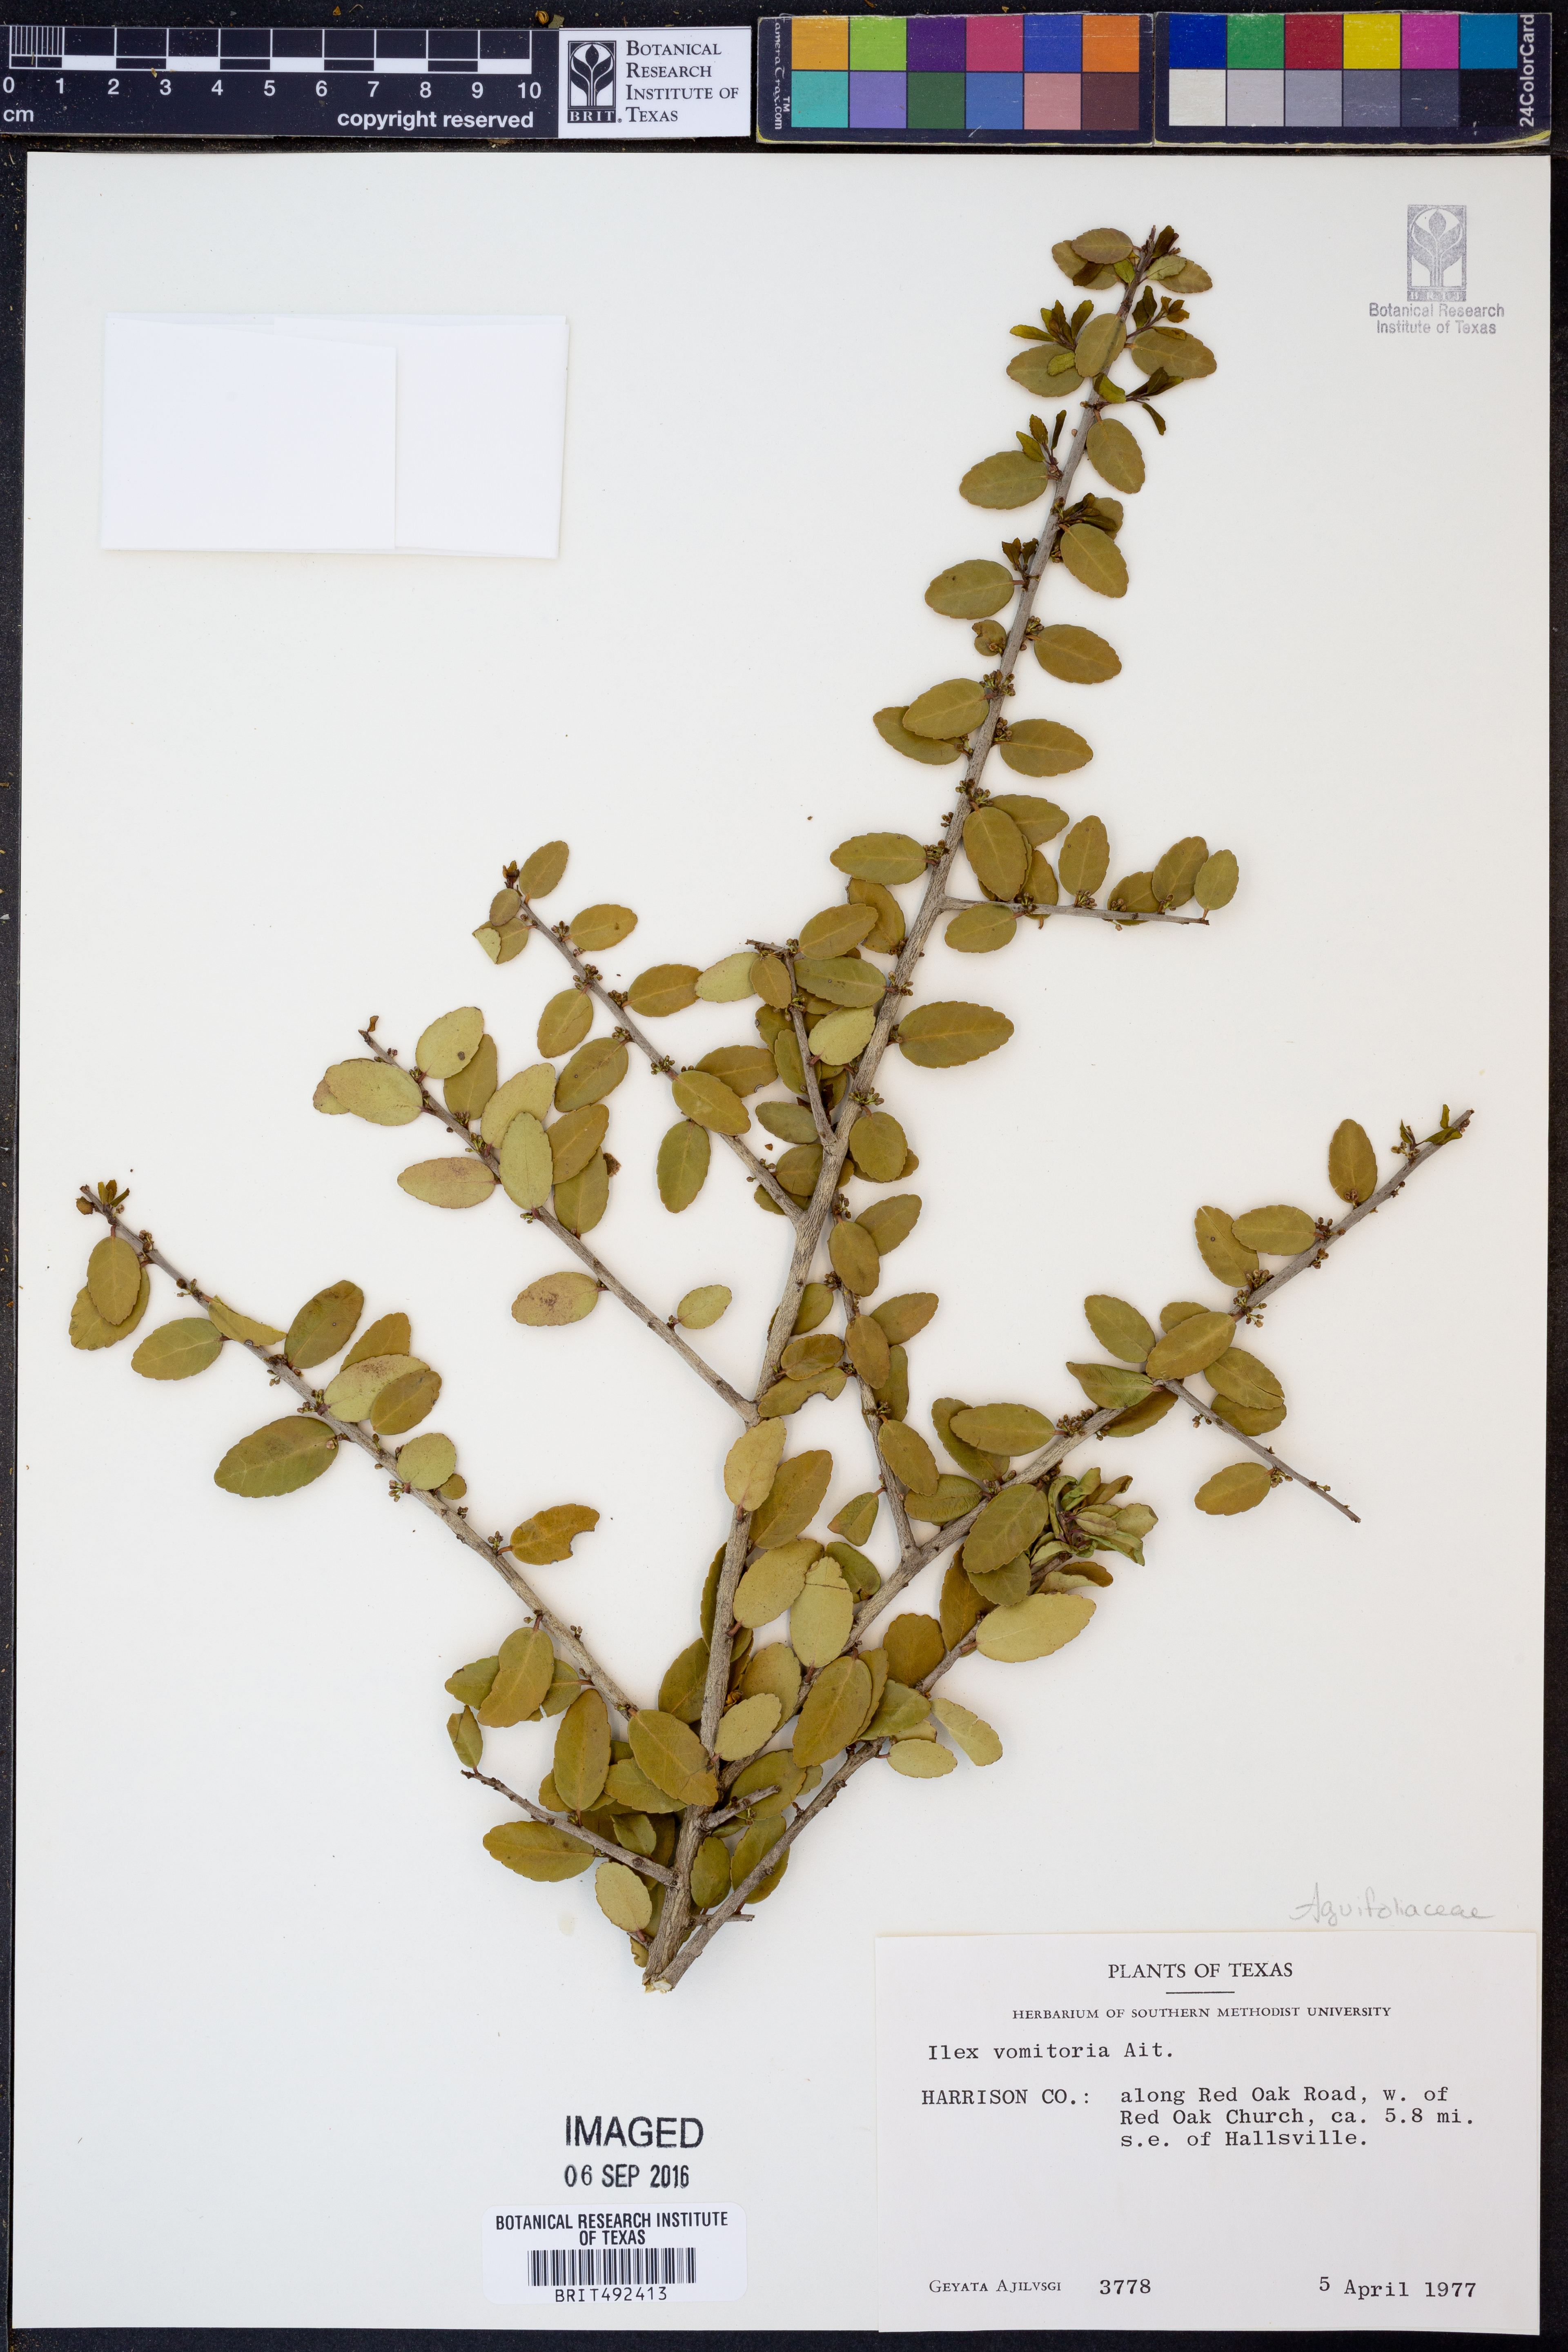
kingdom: Plantae
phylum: Tracheophyta
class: Magnoliopsida
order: Aquifoliales
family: Aquifoliaceae
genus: Ilex
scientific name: Ilex vomitoria
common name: Yaupon holly
